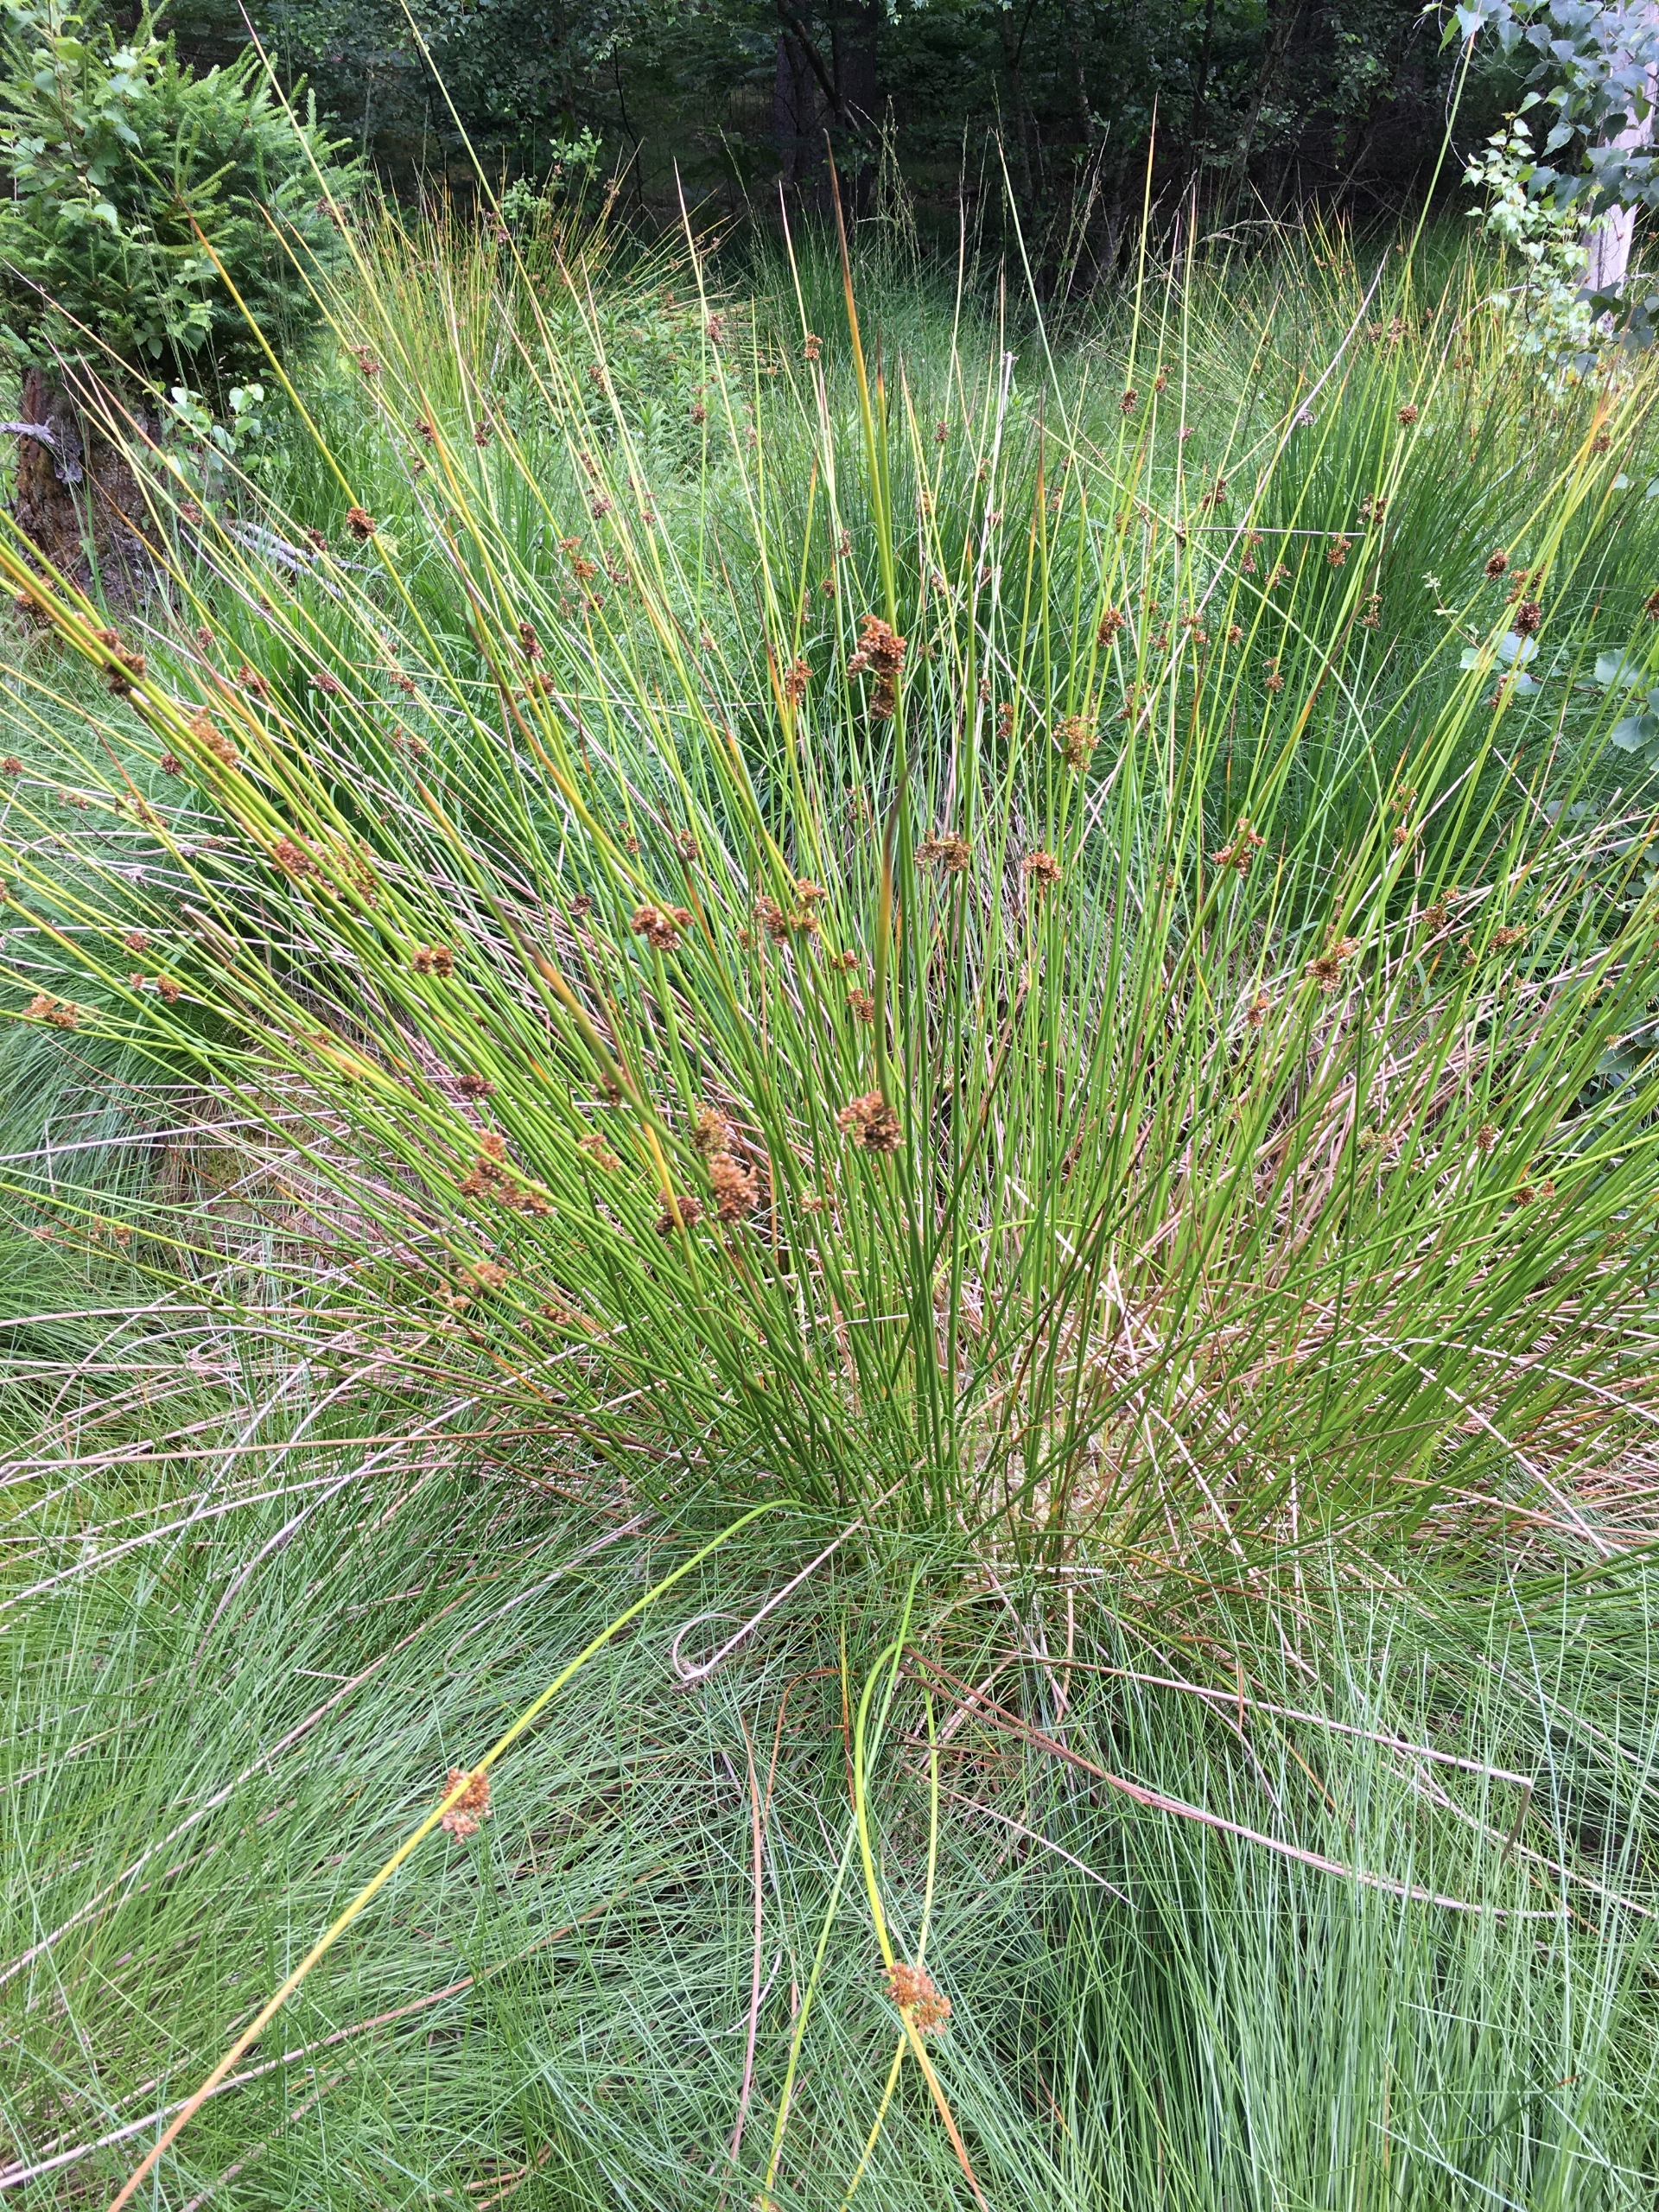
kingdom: Plantae
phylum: Tracheophyta
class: Liliopsida
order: Poales
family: Juncaceae
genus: Juncus
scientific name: Juncus effusus
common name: Lyse-siv
